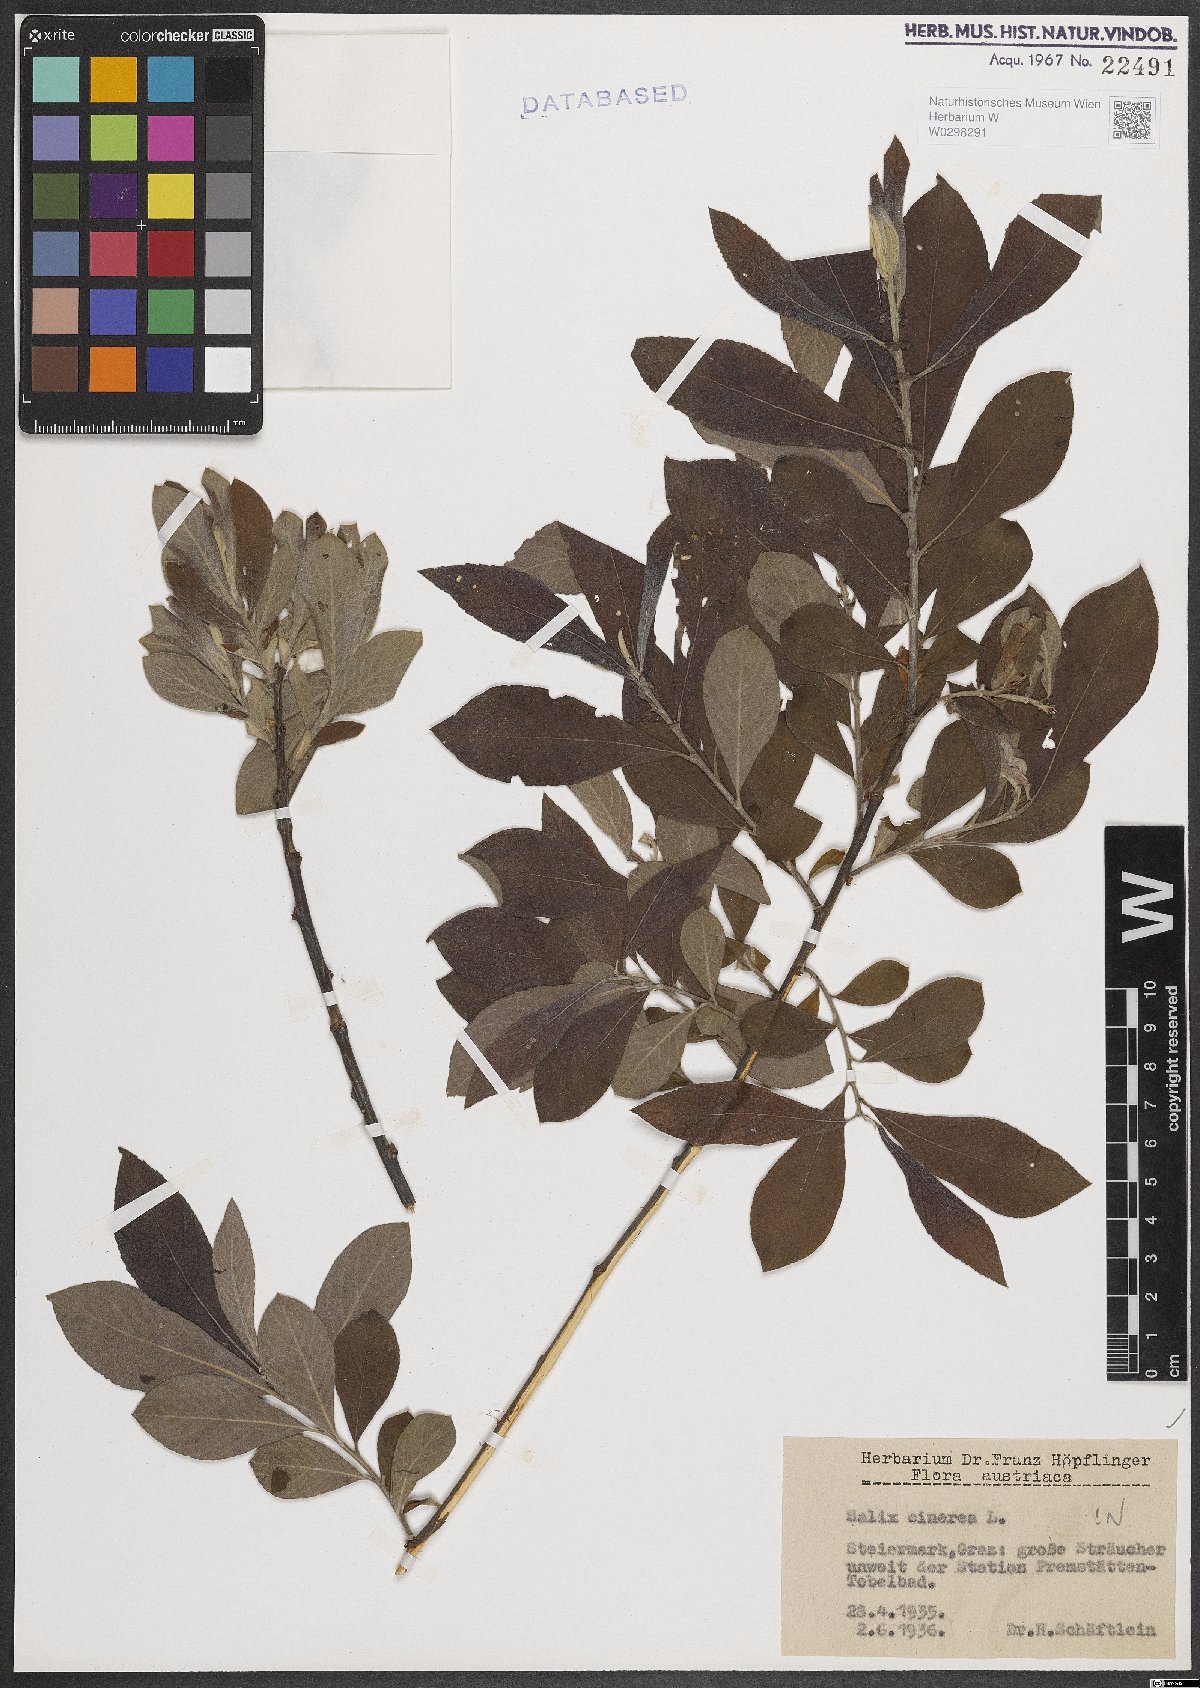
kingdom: Plantae
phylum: Tracheophyta
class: Magnoliopsida
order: Malpighiales
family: Salicaceae
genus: Salix
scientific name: Salix cinerea
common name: Common sallow
